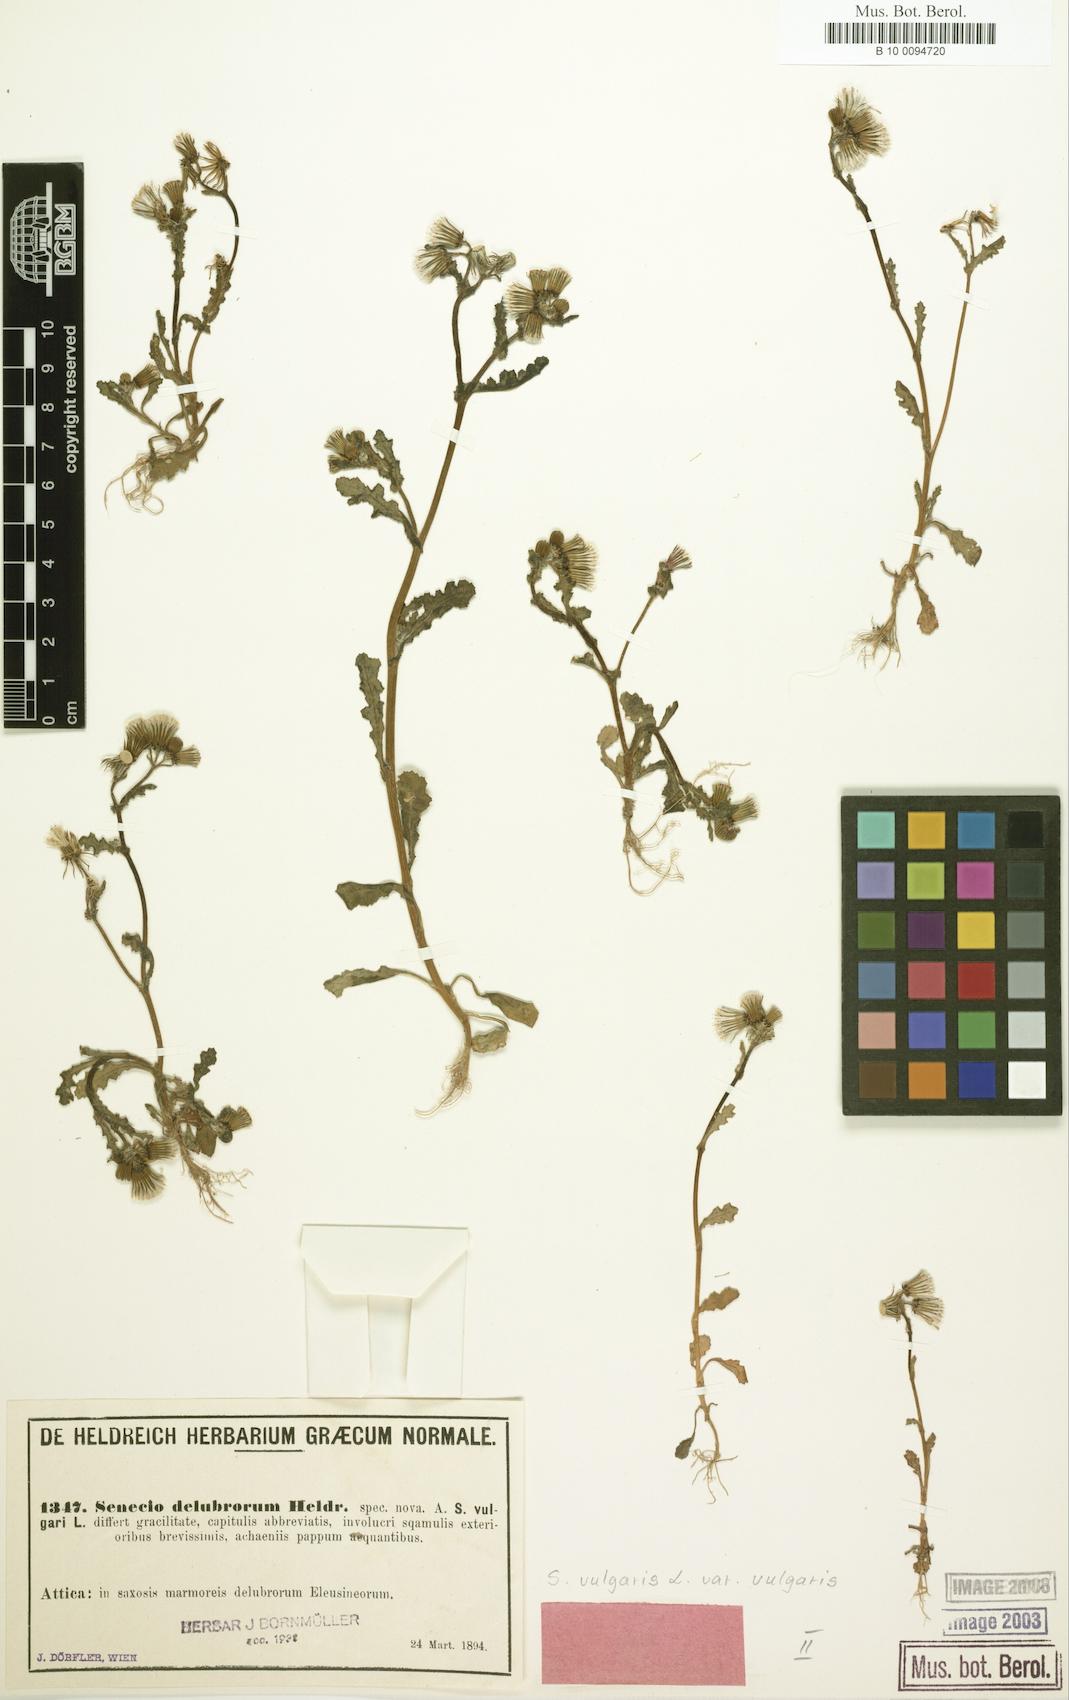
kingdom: Plantae
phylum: Tracheophyta
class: Magnoliopsida
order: Asterales
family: Asteraceae
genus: Senecio
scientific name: Senecio vulgaris
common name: Old-man-in-the-spring
